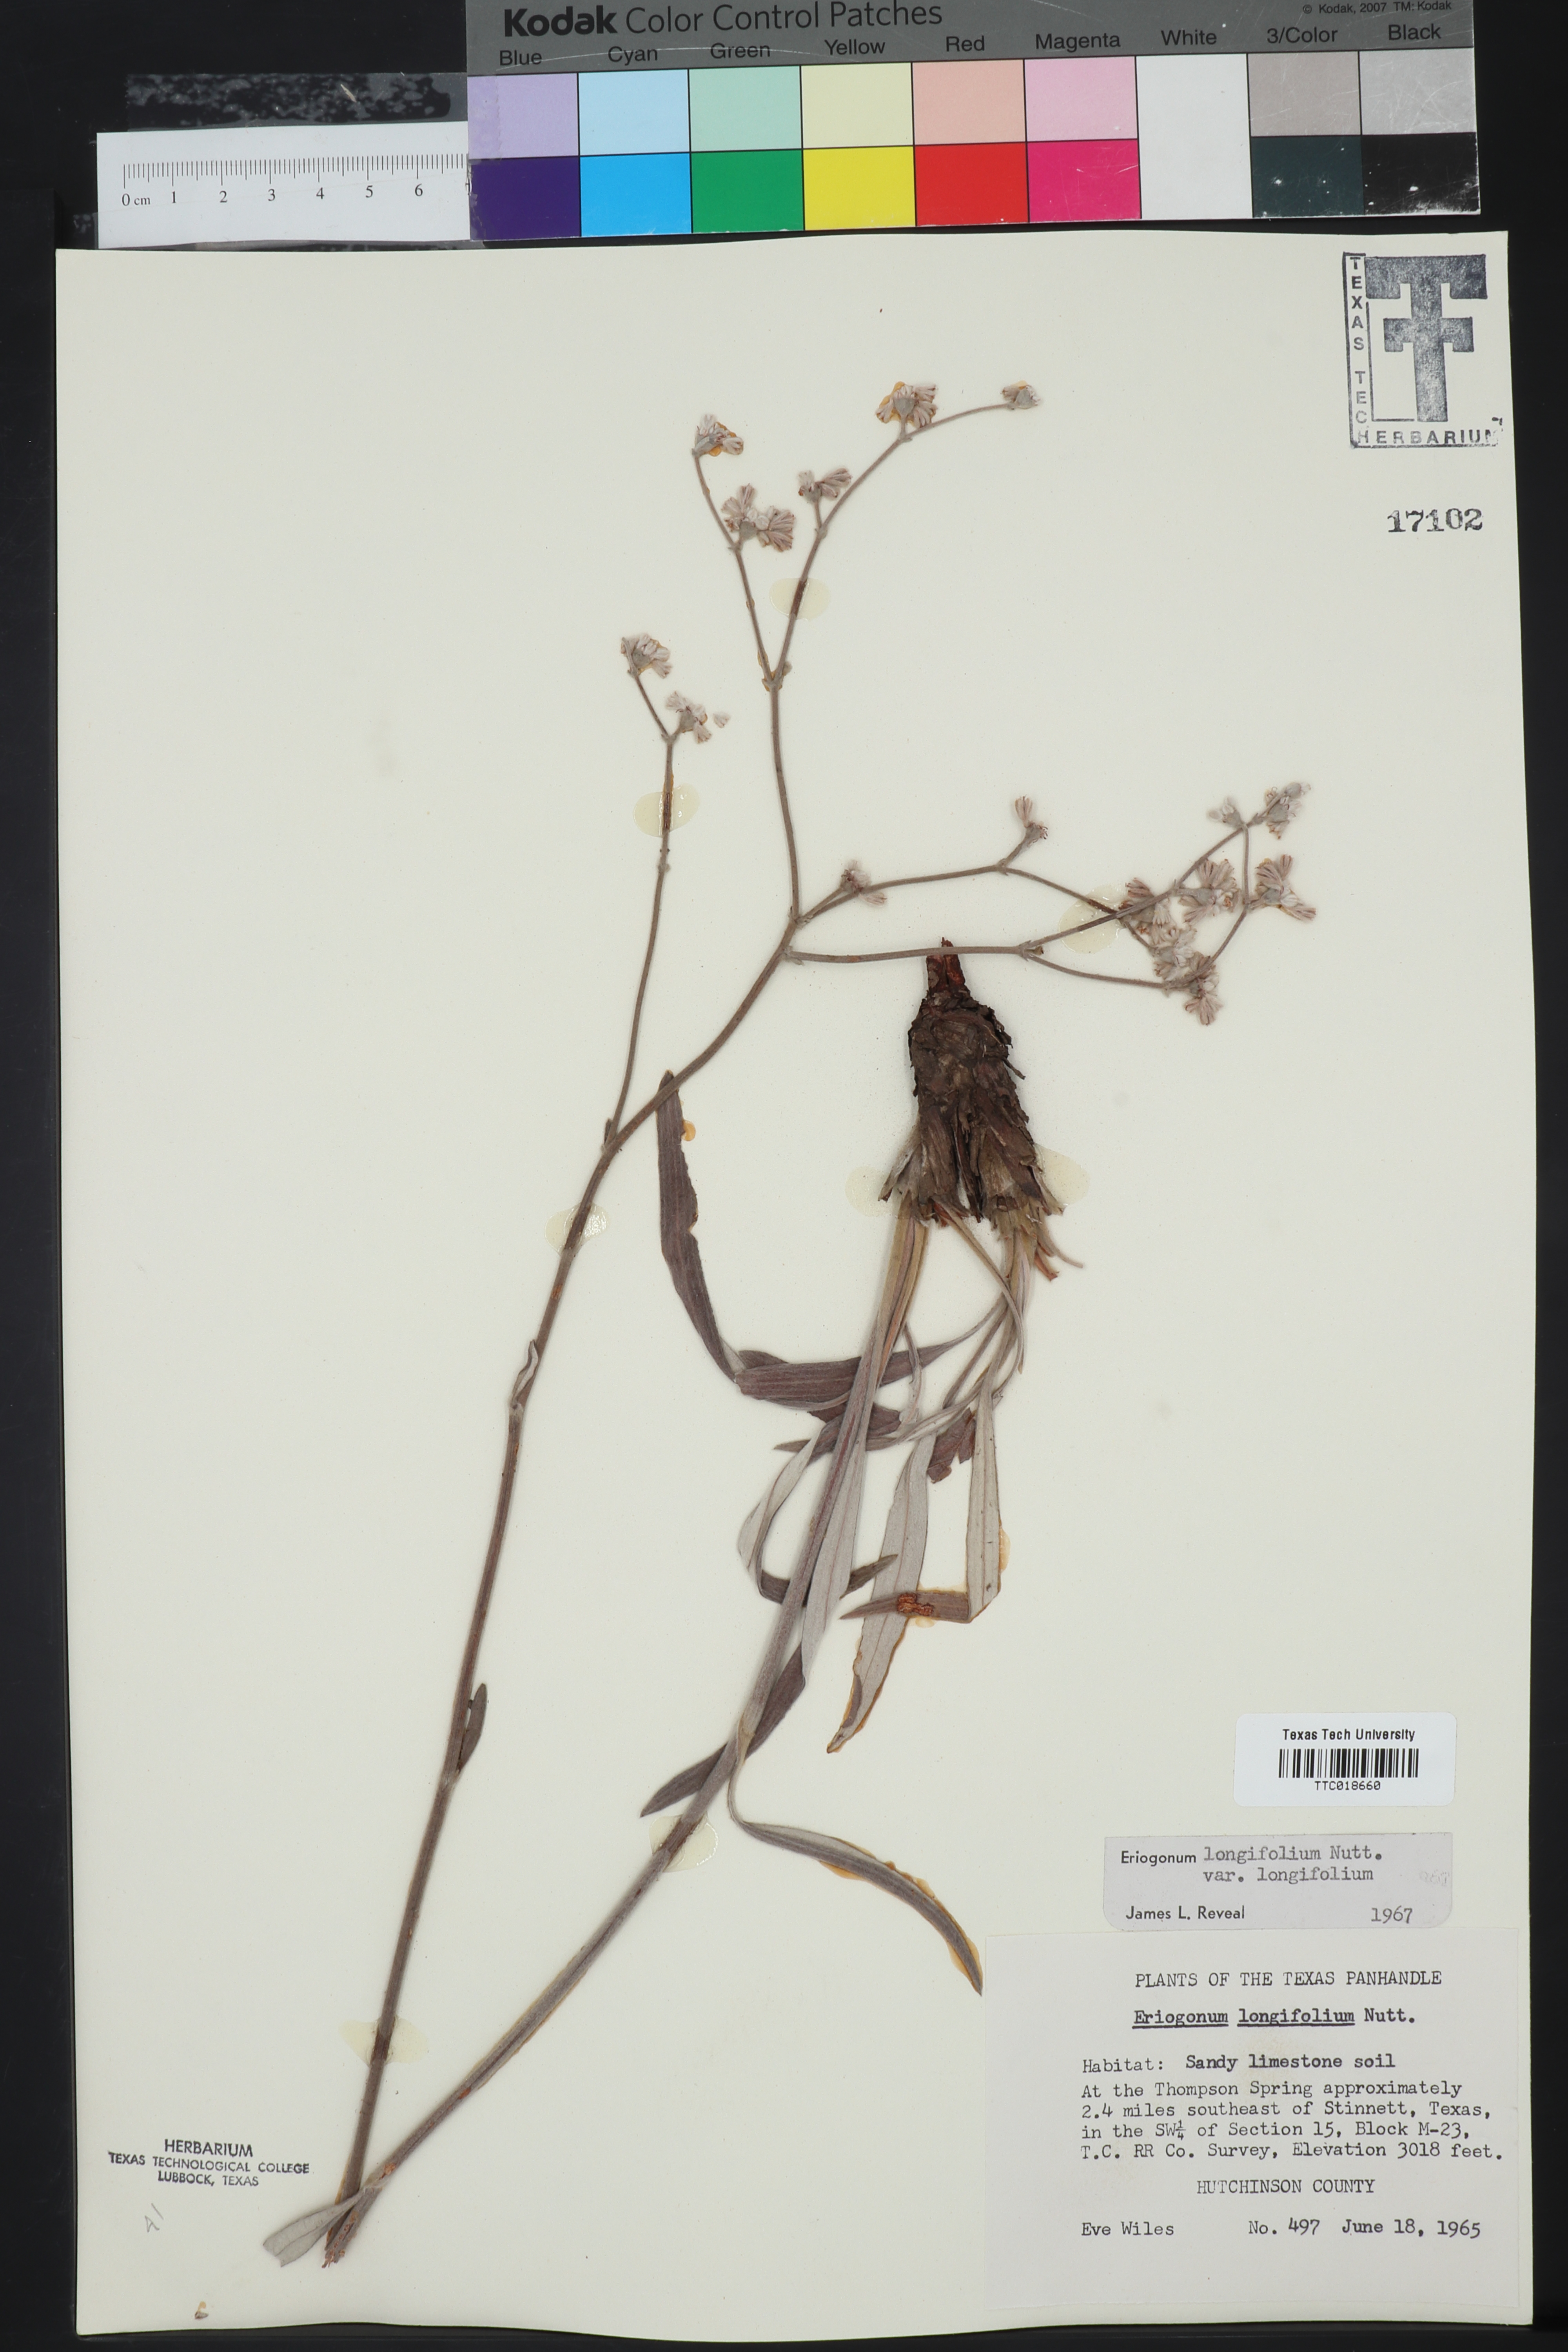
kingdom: Plantae
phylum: Tracheophyta
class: Magnoliopsida
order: Caryophyllales
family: Polygonaceae
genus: Eriogonum
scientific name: Eriogonum longifolium
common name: Longleaf wild buckwheat
